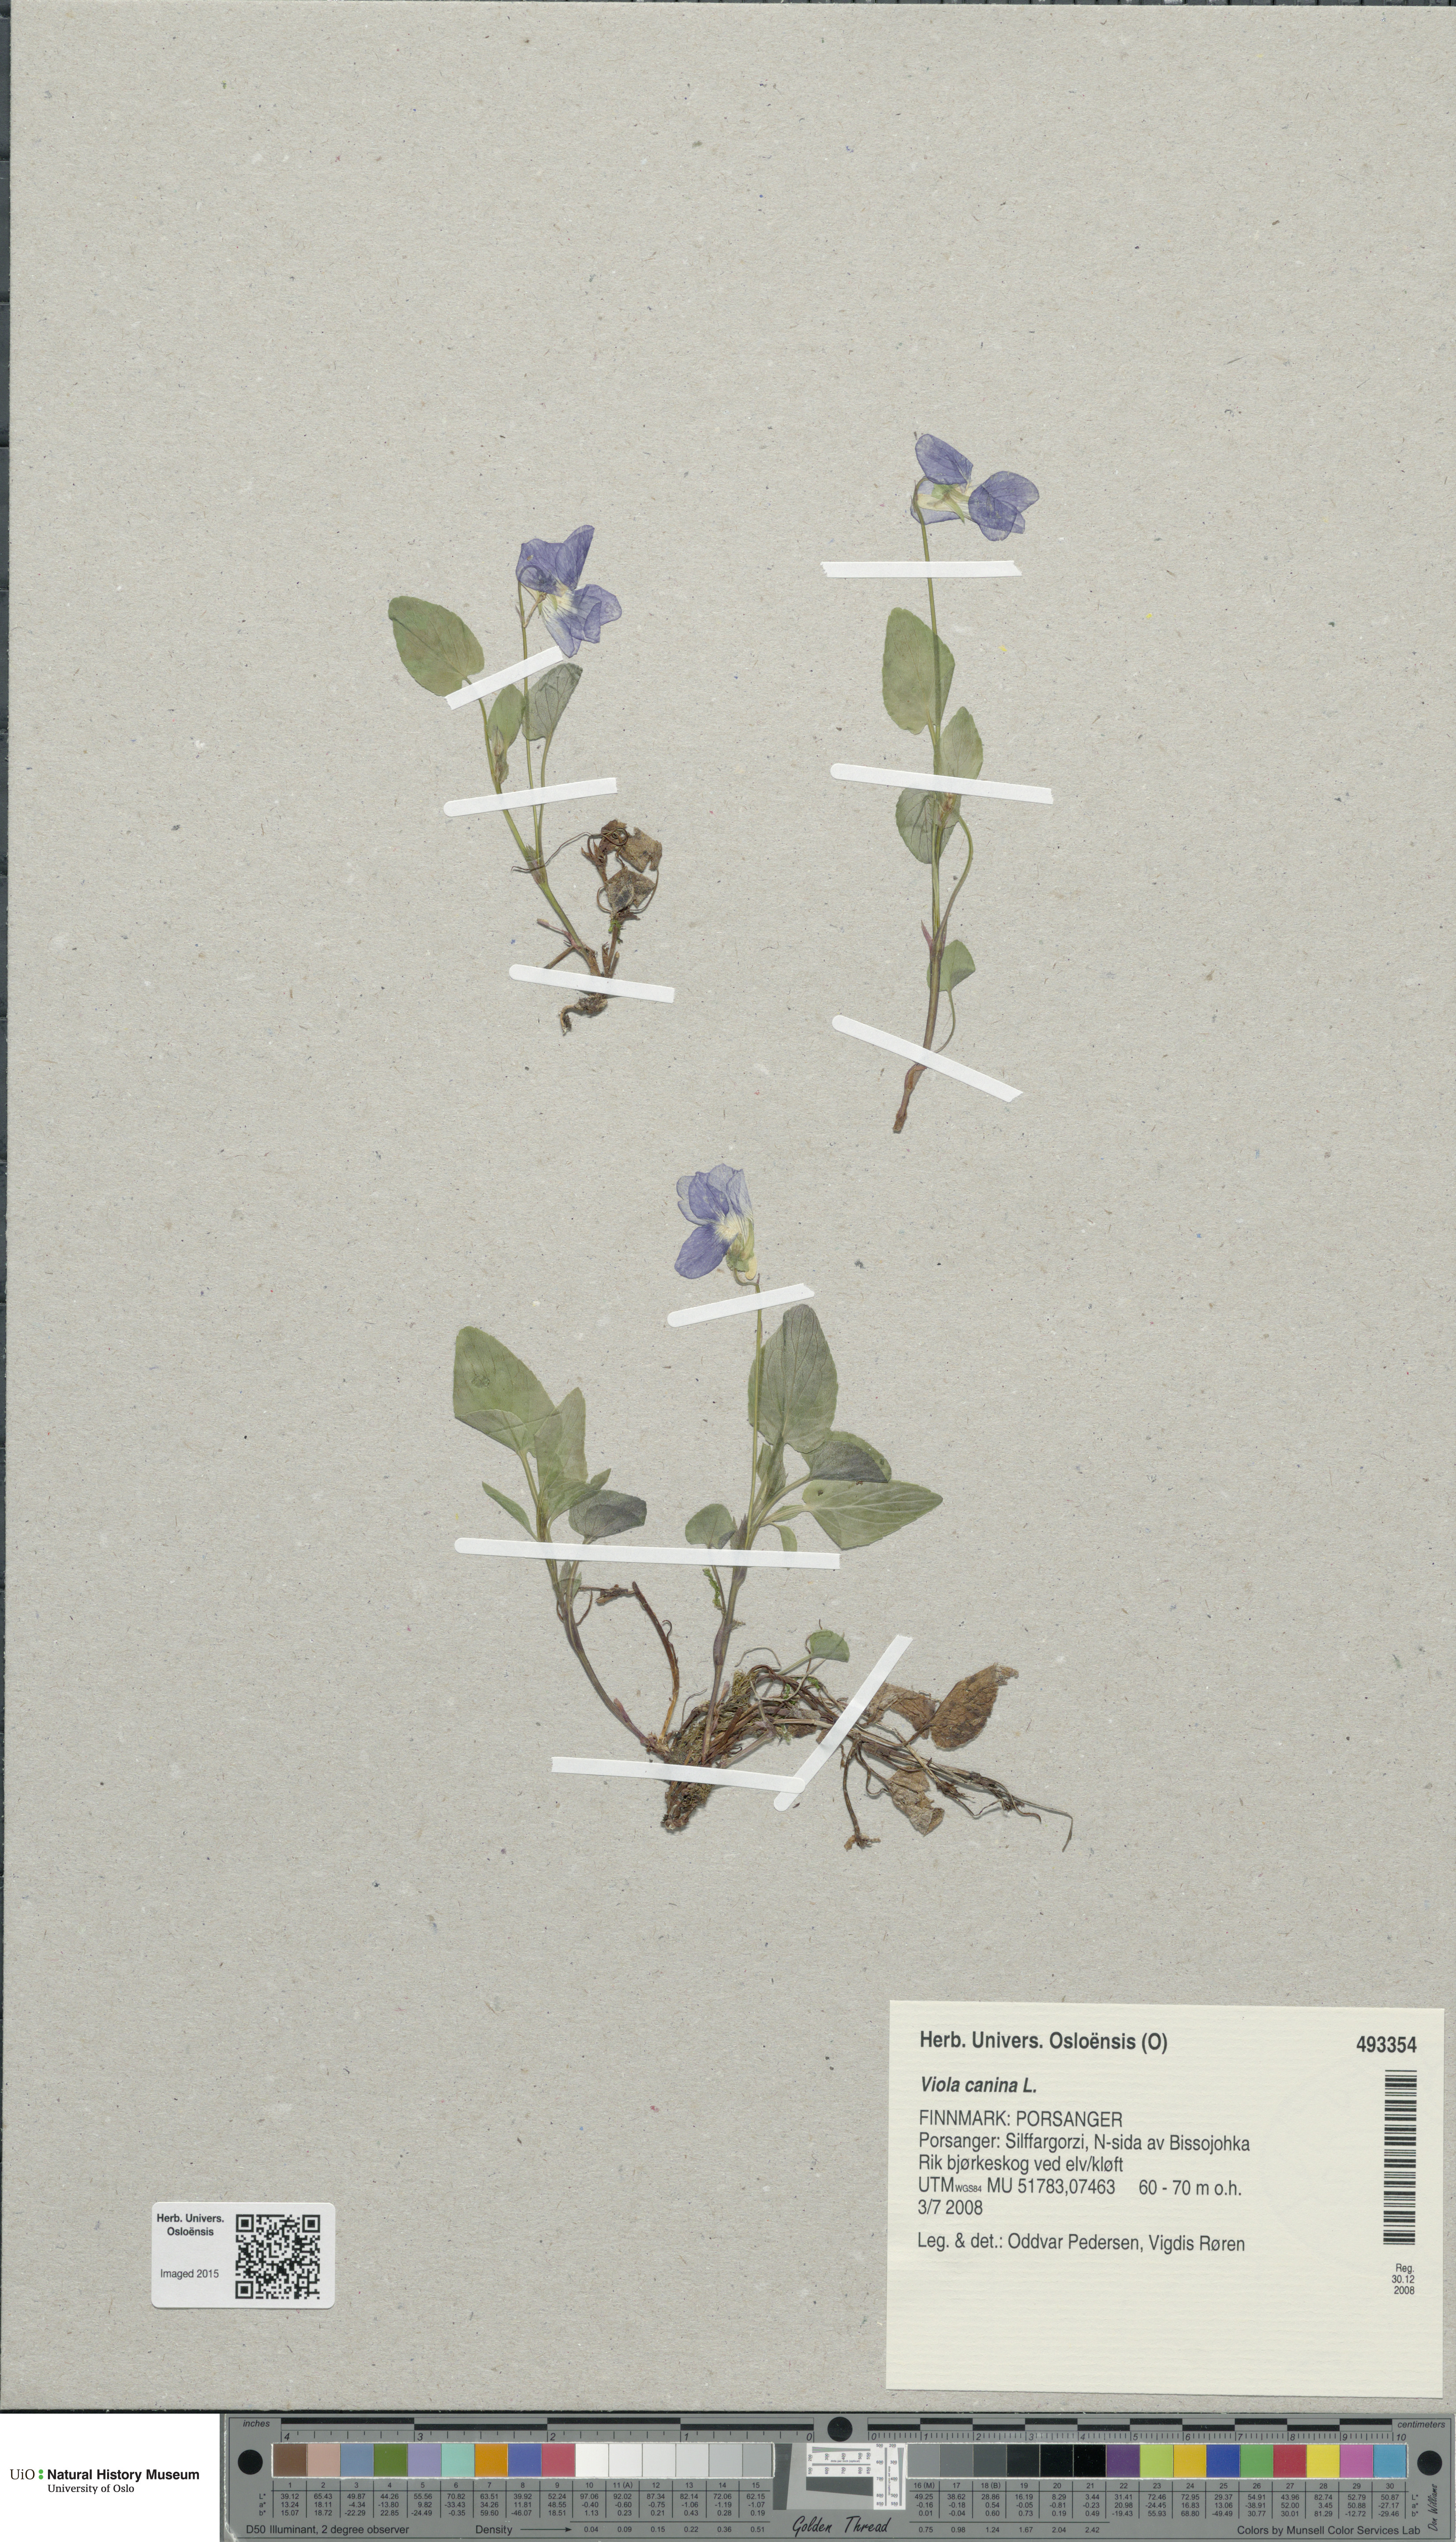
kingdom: Plantae
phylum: Tracheophyta
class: Magnoliopsida
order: Malpighiales
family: Violaceae
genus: Viola
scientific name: Viola canina
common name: Heath dog-violet
